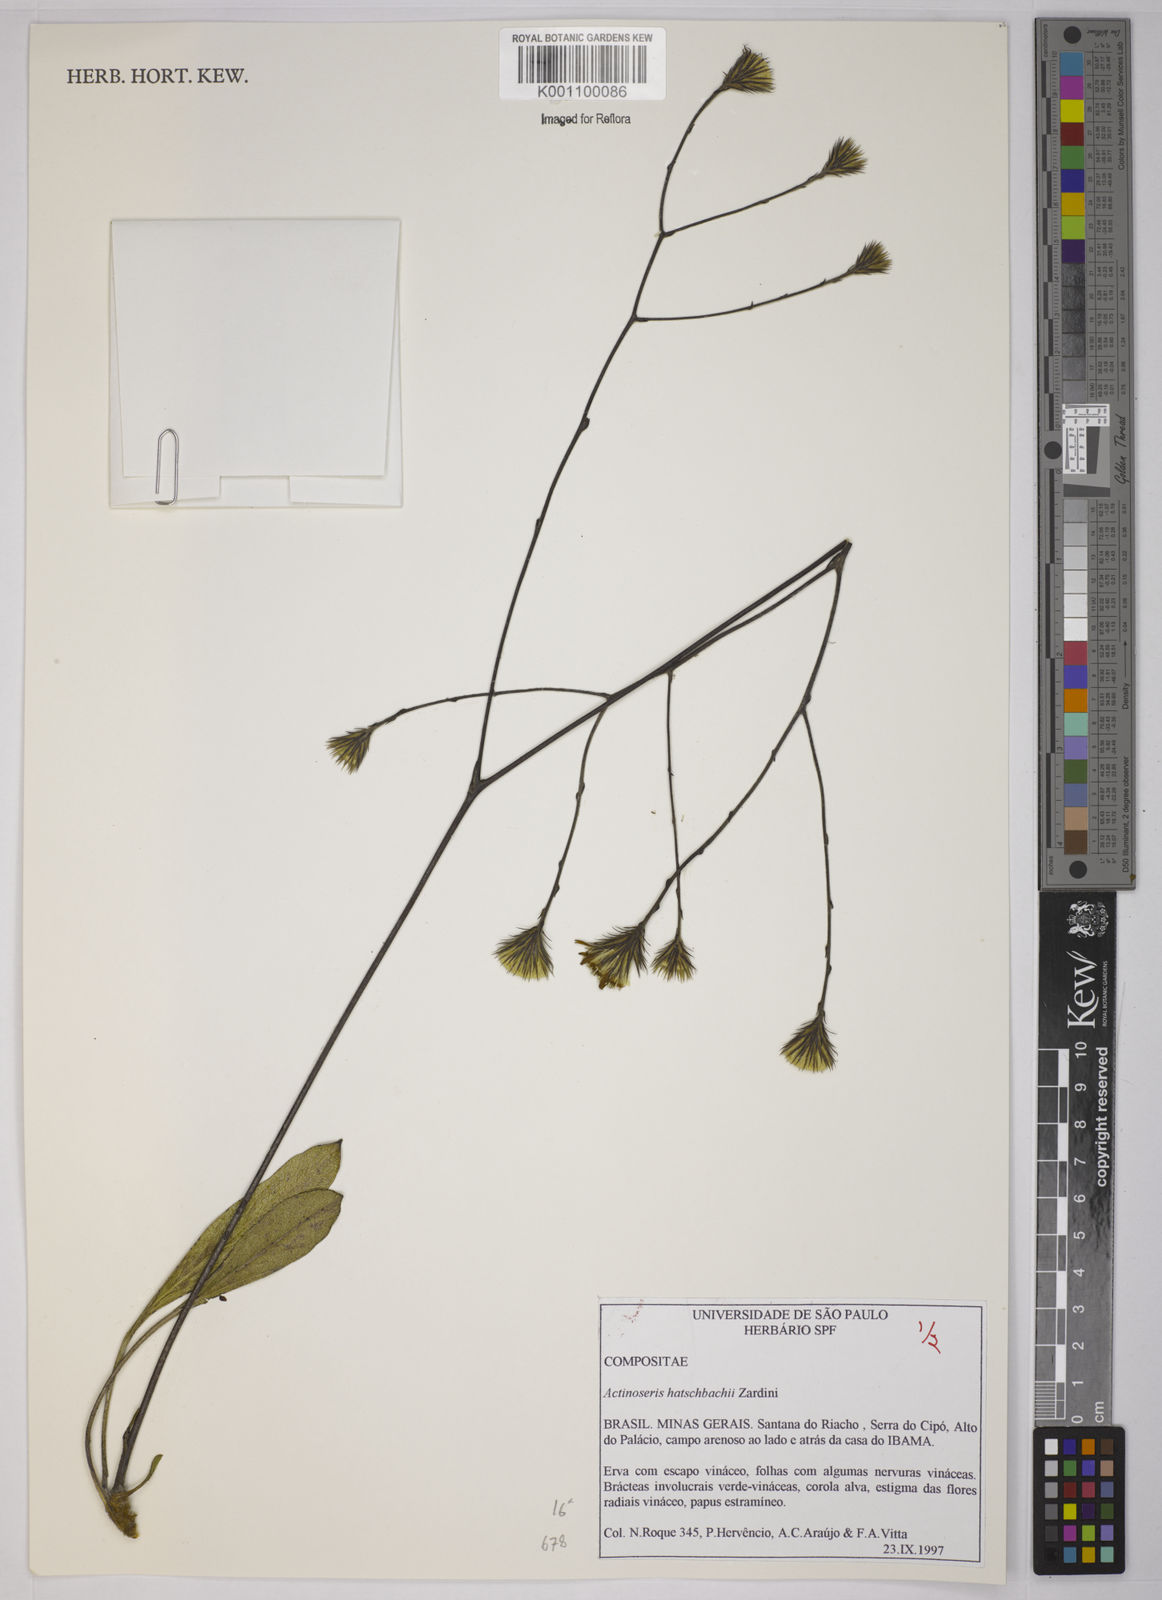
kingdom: Plantae
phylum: Tracheophyta
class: Magnoliopsida
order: Asterales
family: Asteraceae
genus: Richterago
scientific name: Richterago hatschbachii
